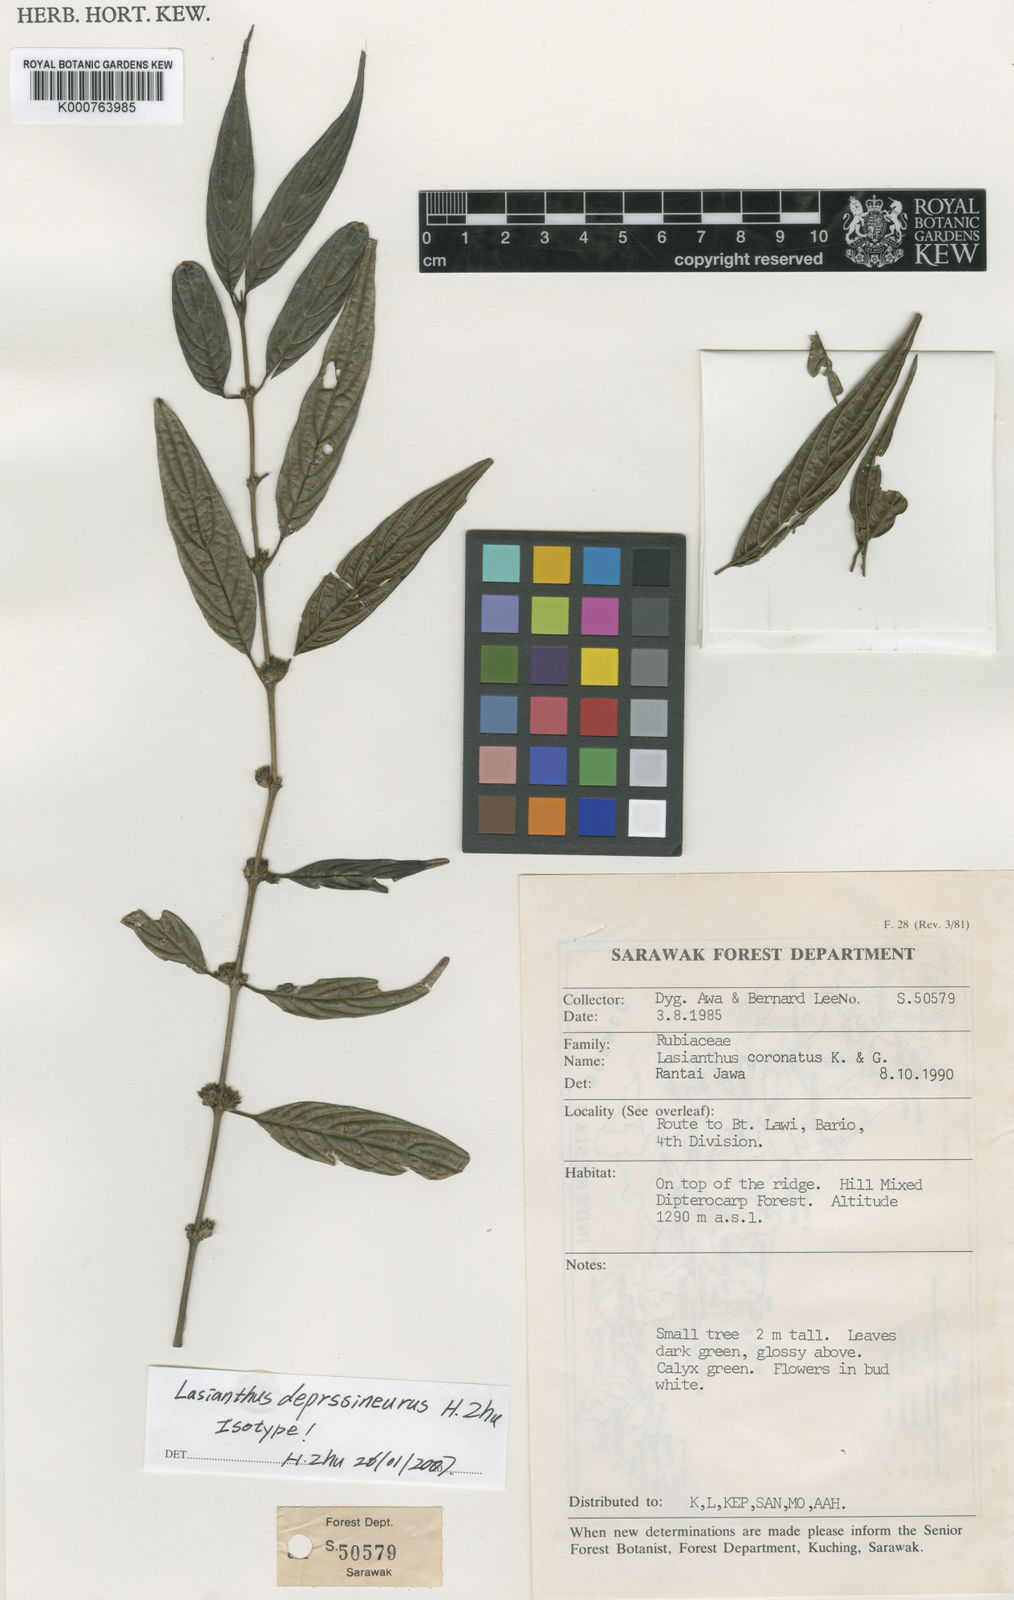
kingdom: Plantae
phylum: Tracheophyta
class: Magnoliopsida
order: Gentianales
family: Rubiaceae
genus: Lasianthus
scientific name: Lasianthus
